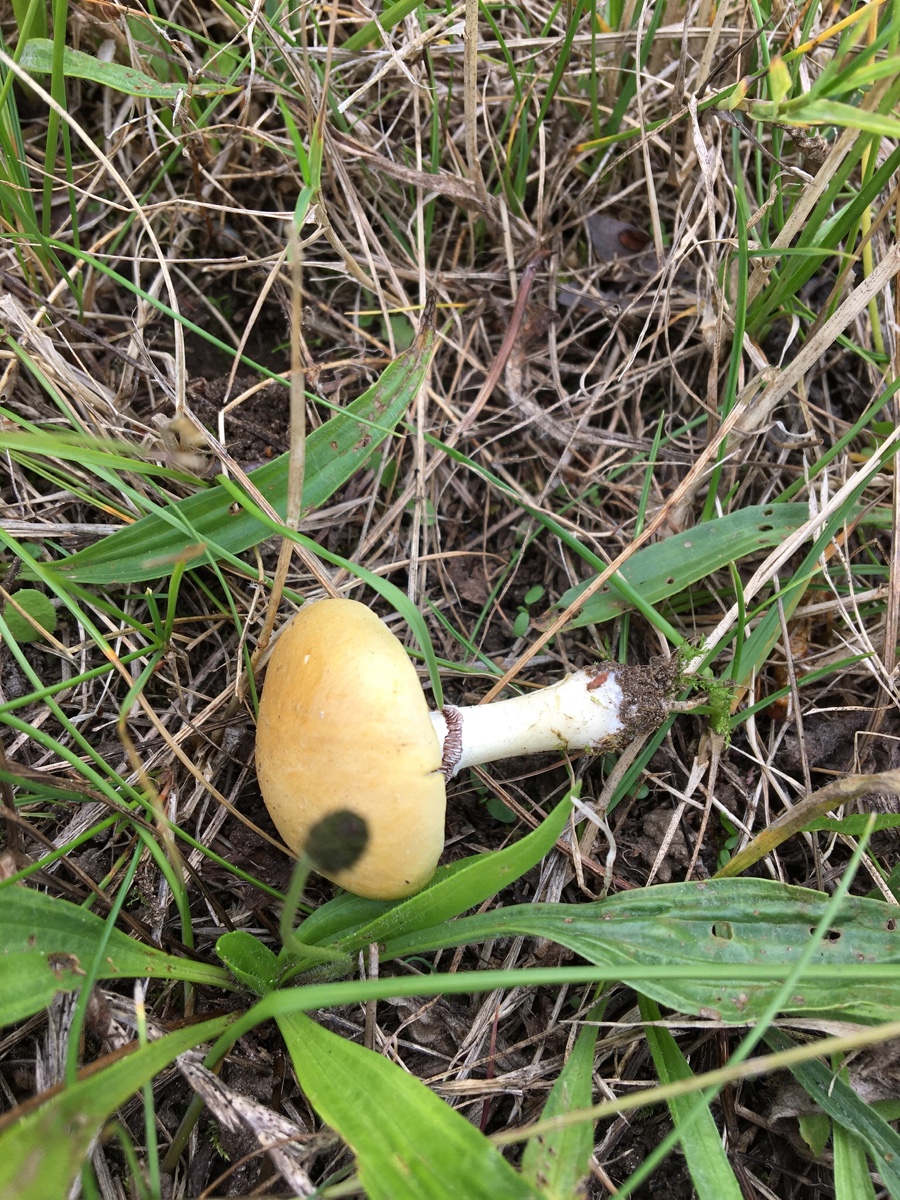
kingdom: Fungi
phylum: Basidiomycota
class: Agaricomycetes
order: Agaricales
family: Hymenogastraceae
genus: Psilocybe
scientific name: Psilocybe coronilla
